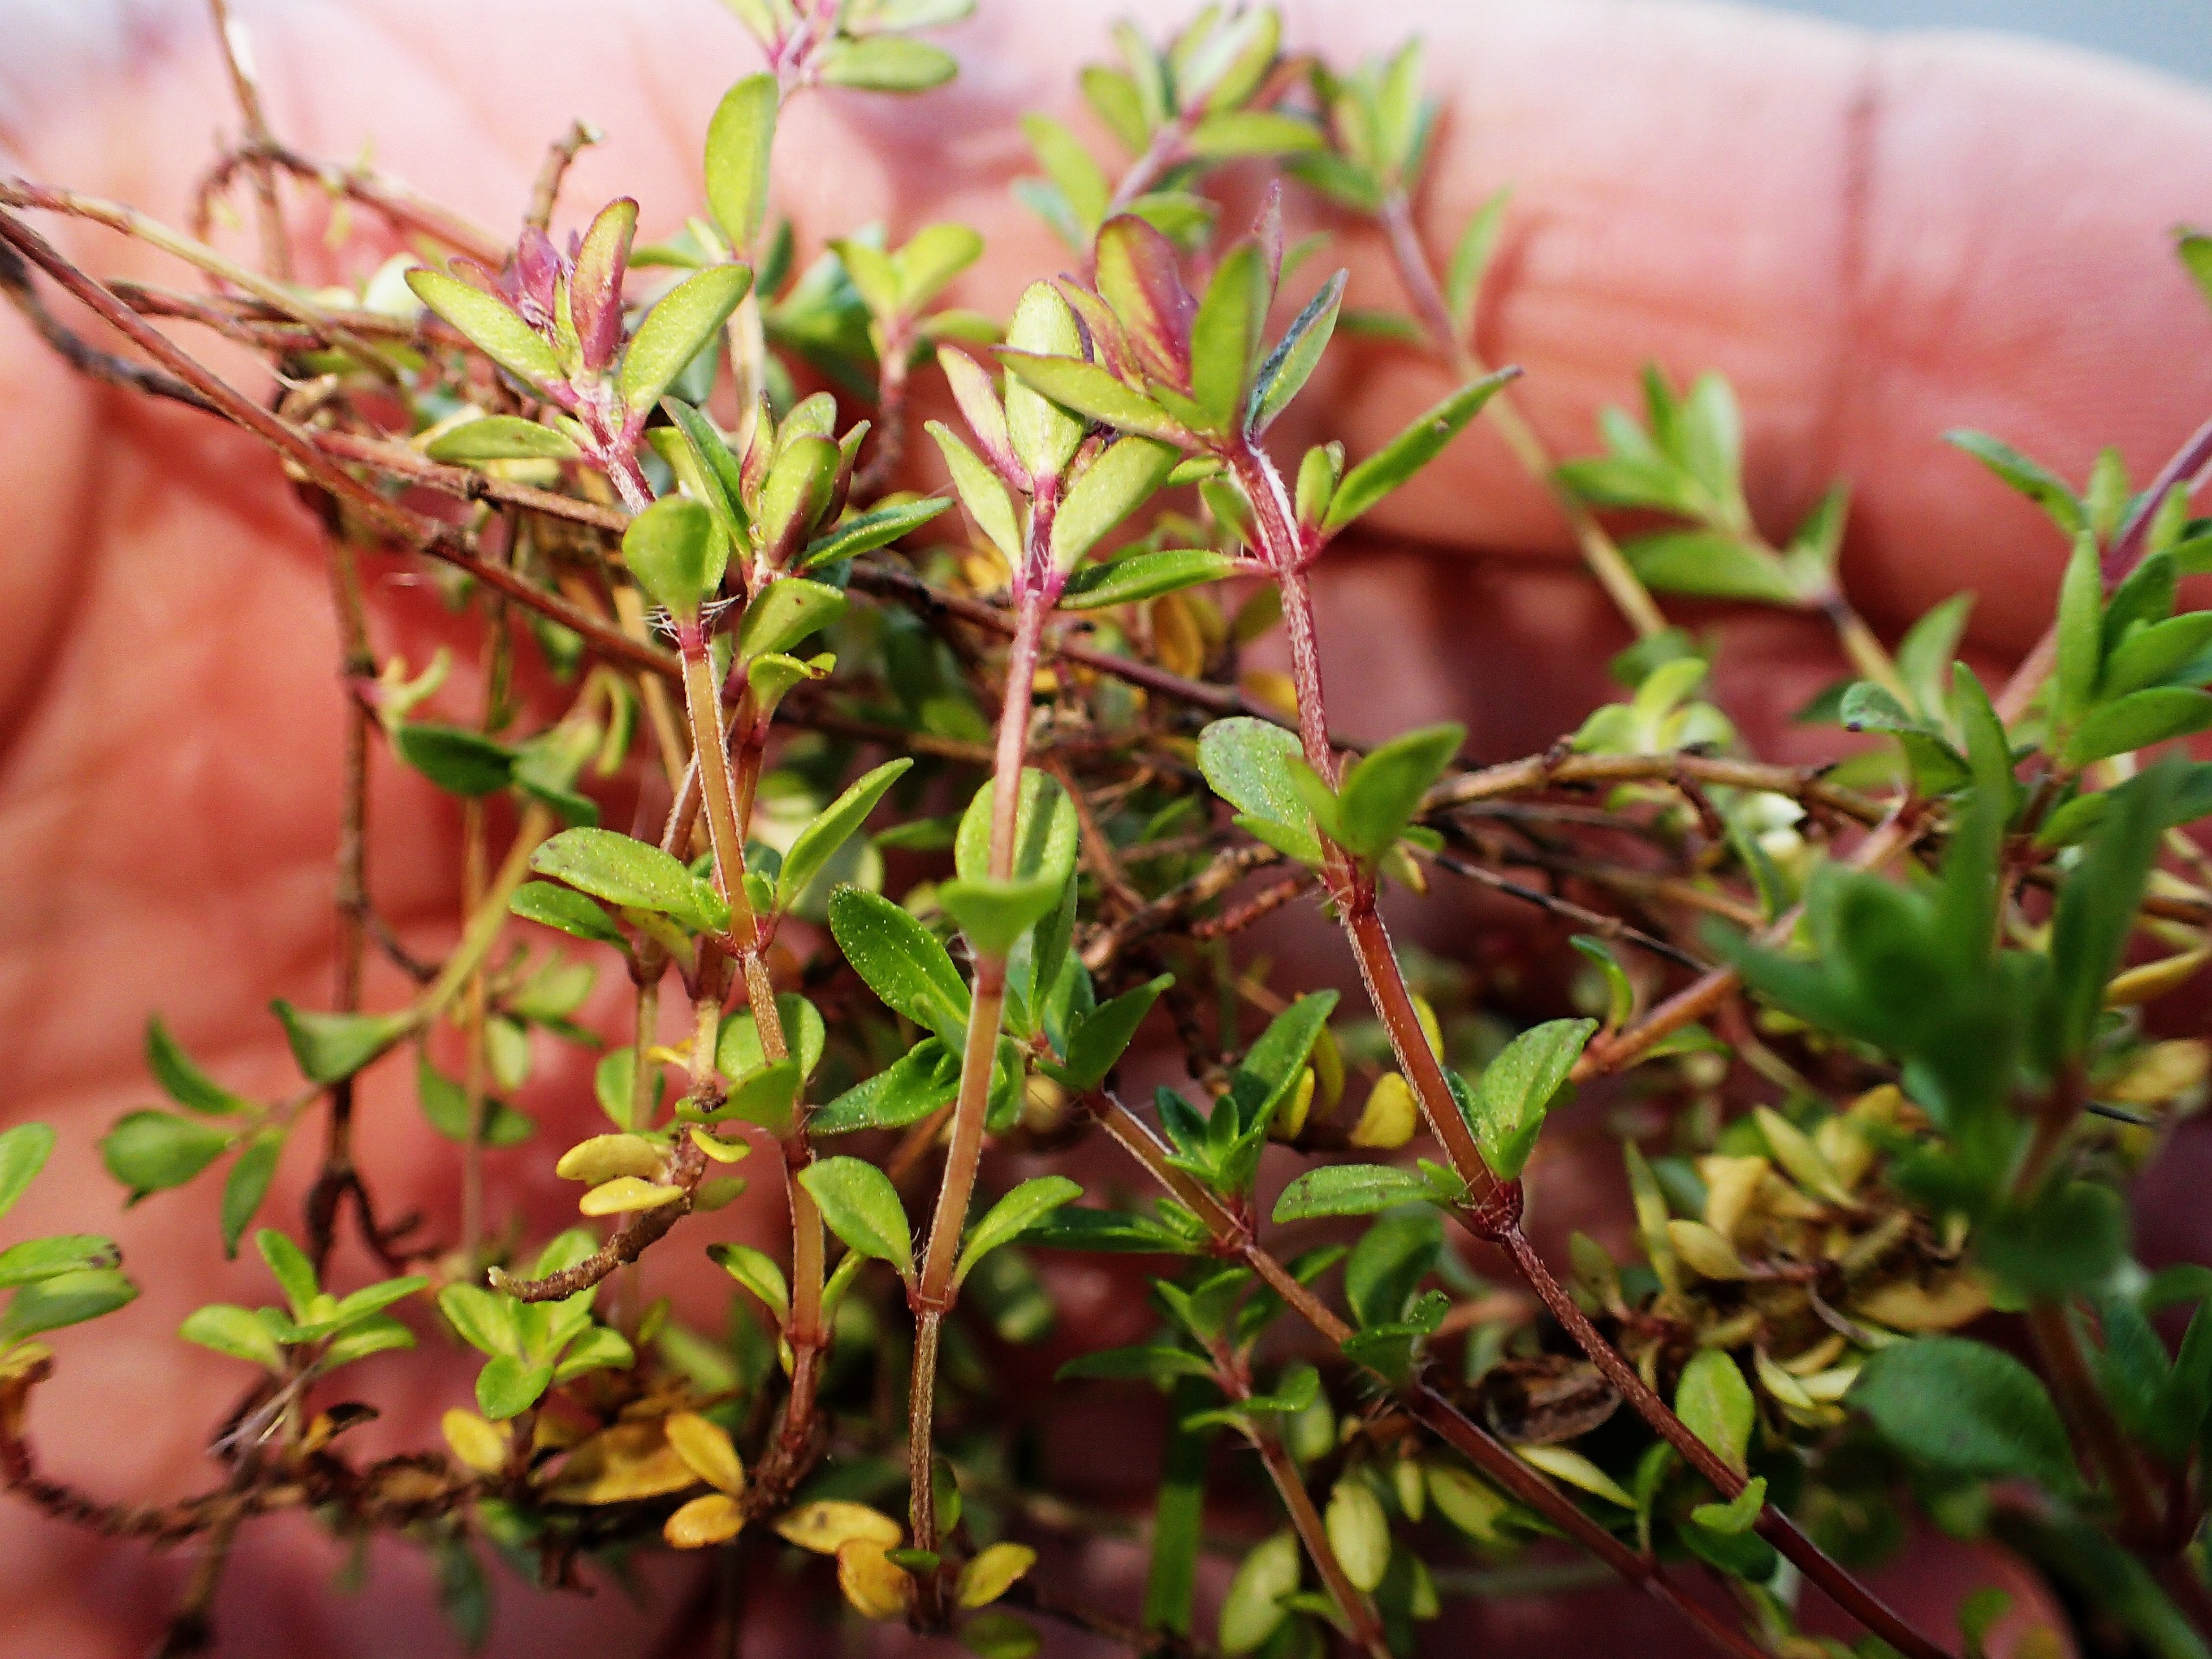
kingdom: Plantae
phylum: Tracheophyta
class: Magnoliopsida
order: Lamiales
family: Lamiaceae
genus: Thymus
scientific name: Thymus serpyllum
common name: Smalbladet timian
